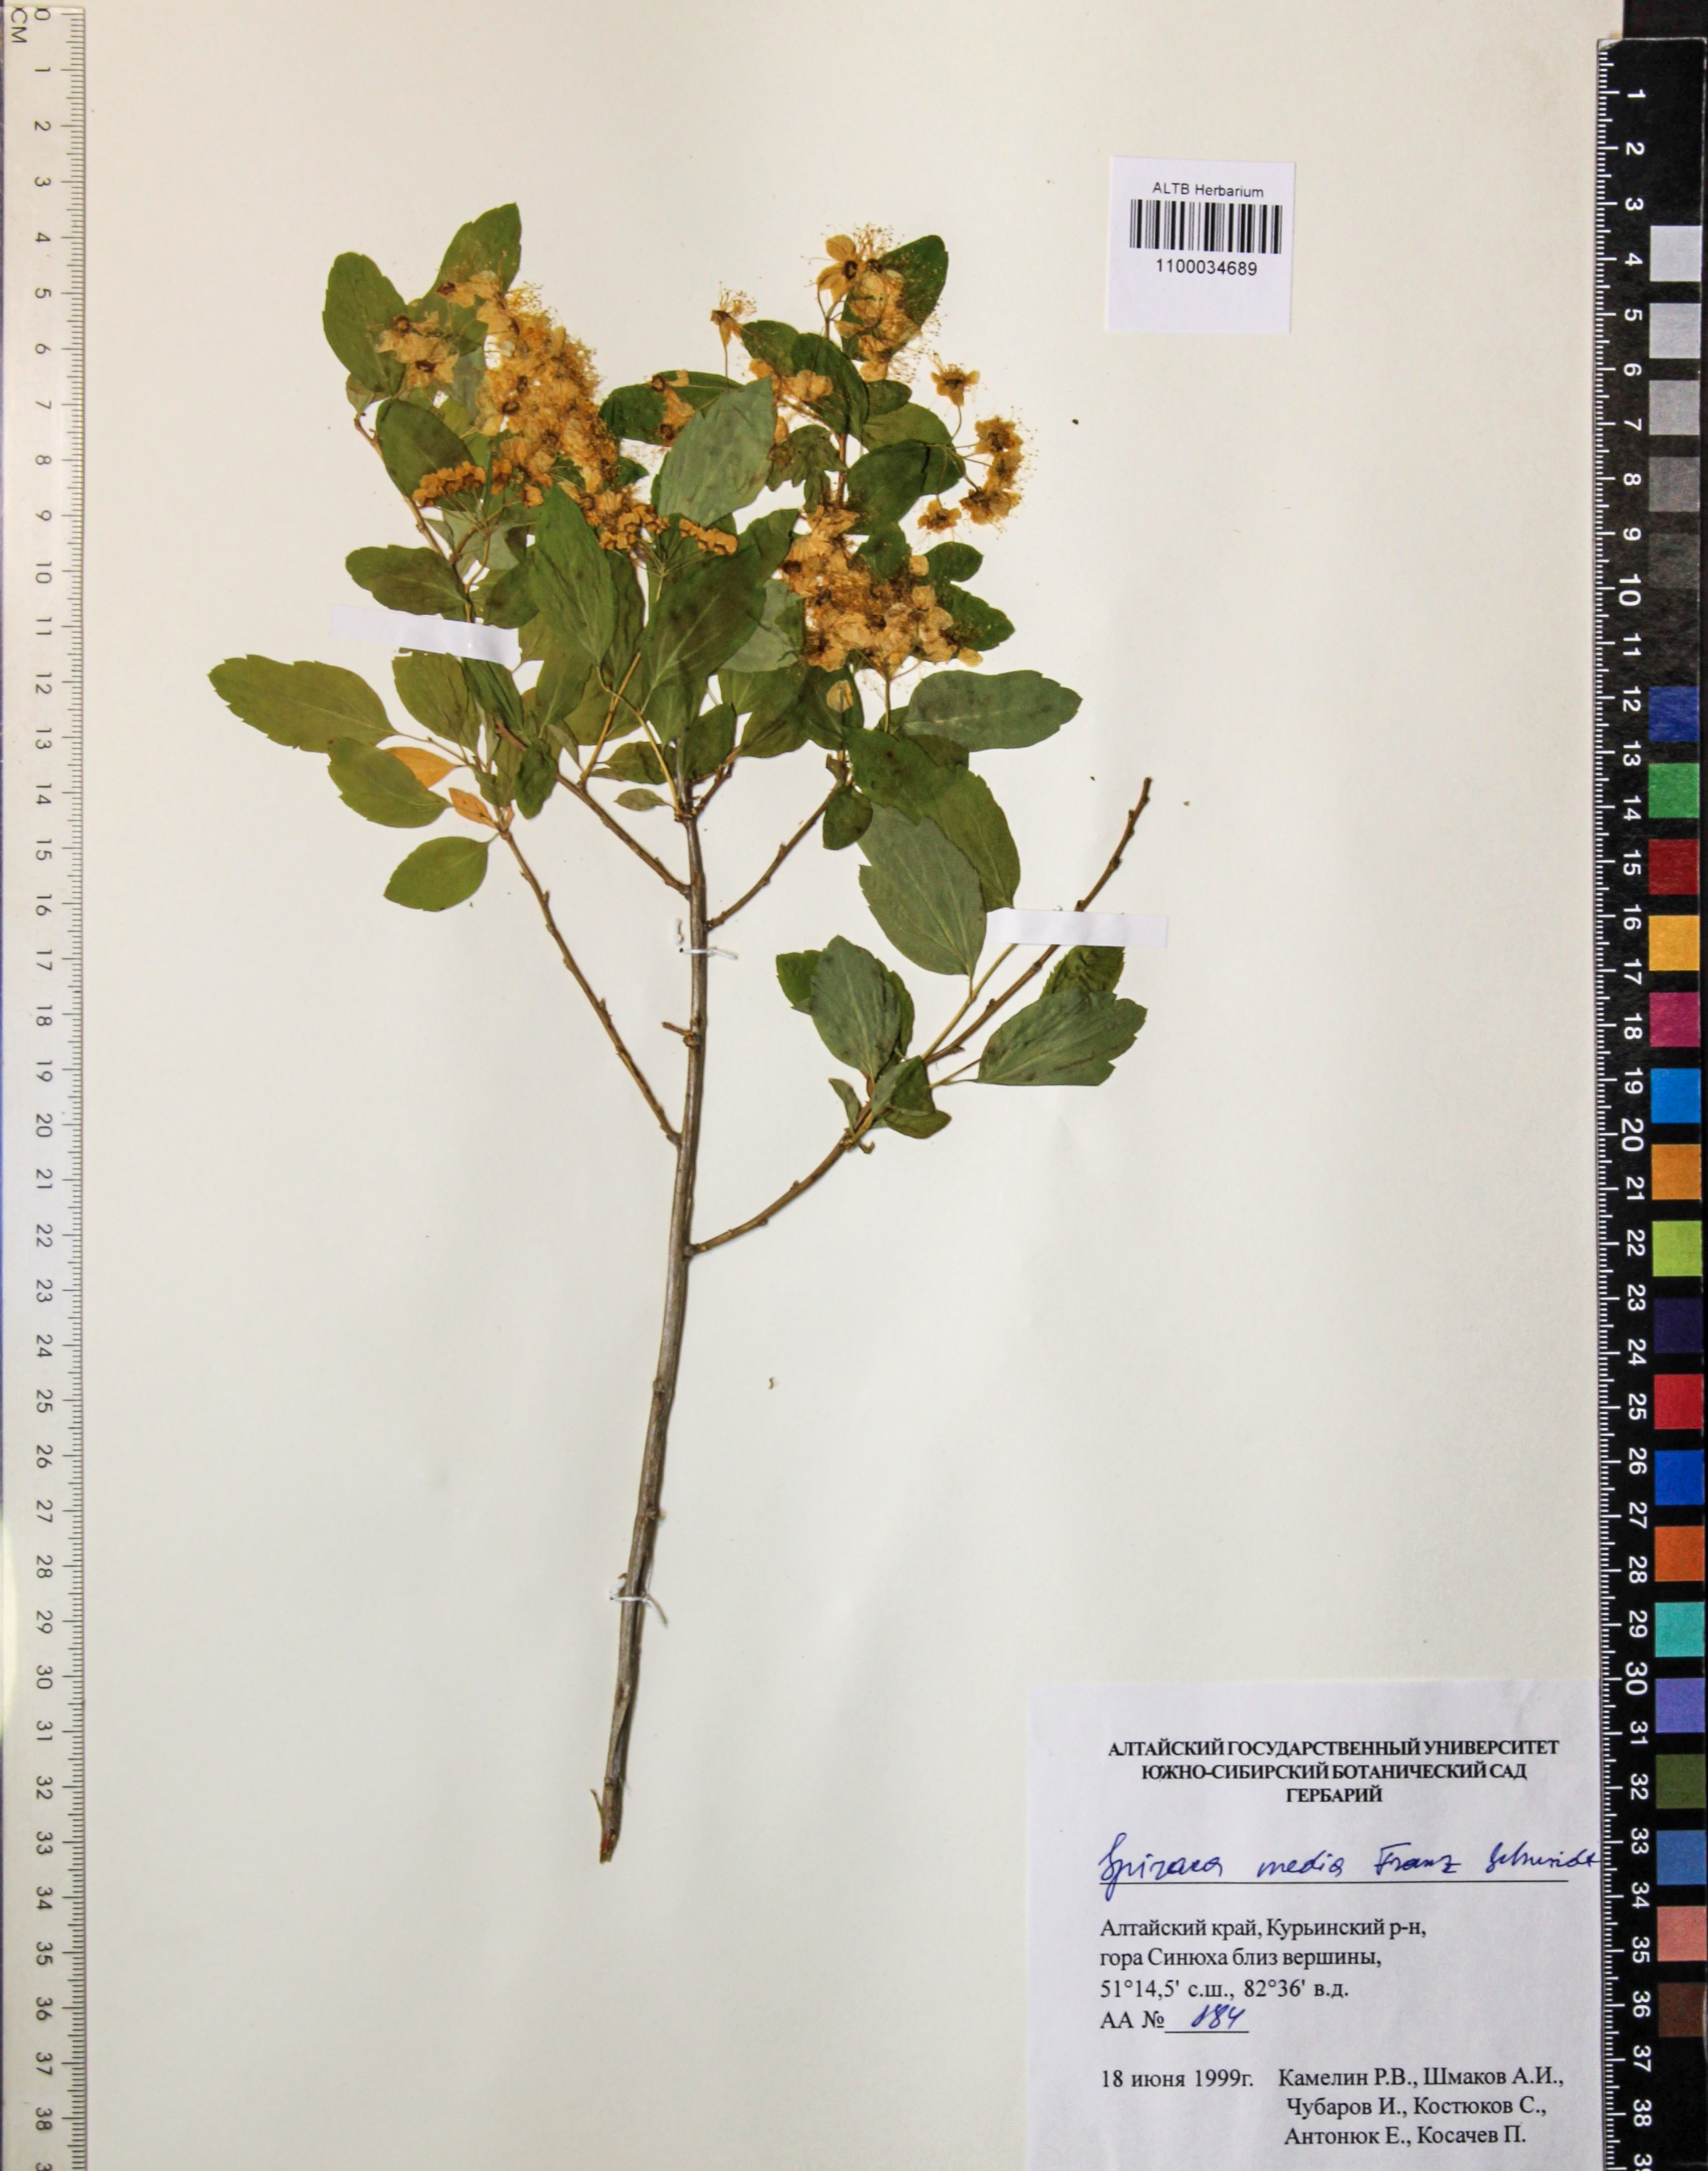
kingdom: Plantae
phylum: Tracheophyta
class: Magnoliopsida
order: Rosales
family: Rosaceae
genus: Spiraea
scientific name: Spiraea media
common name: Russian spiraea
